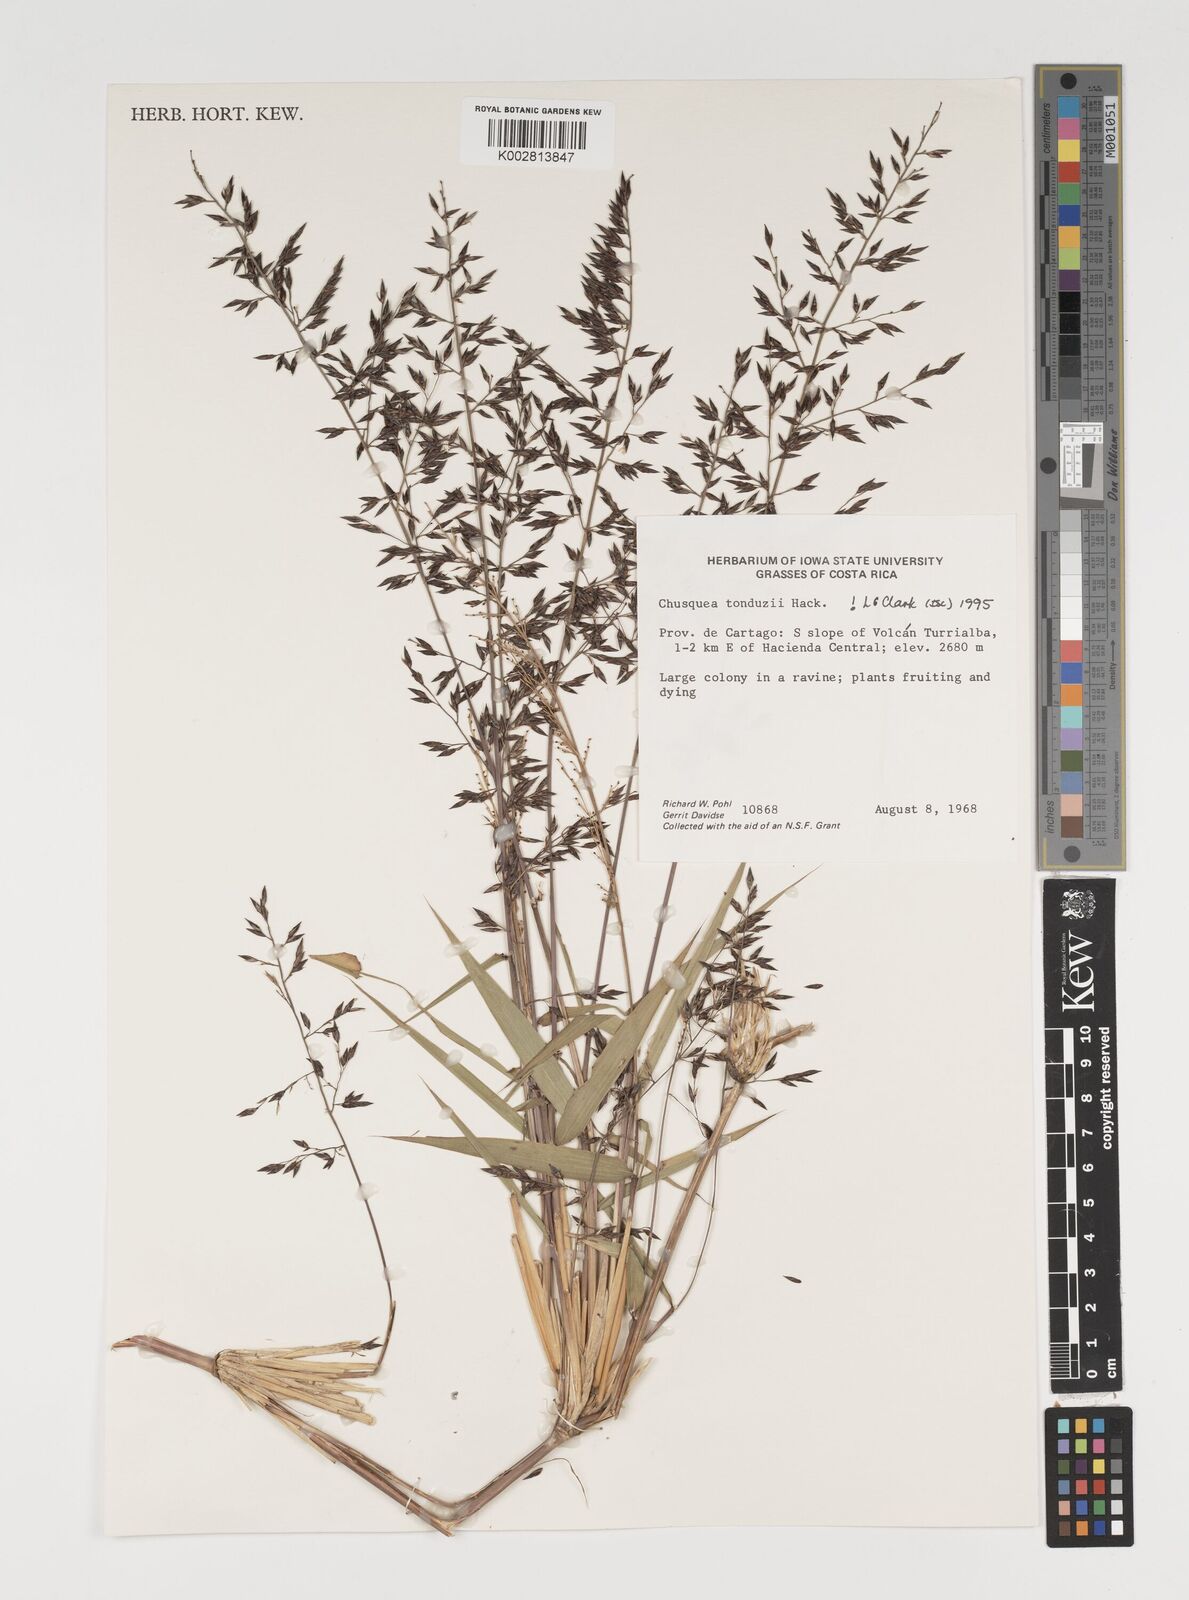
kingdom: Plantae
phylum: Tracheophyta
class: Liliopsida
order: Poales
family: Poaceae
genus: Chusquea
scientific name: Chusquea tonduzii
